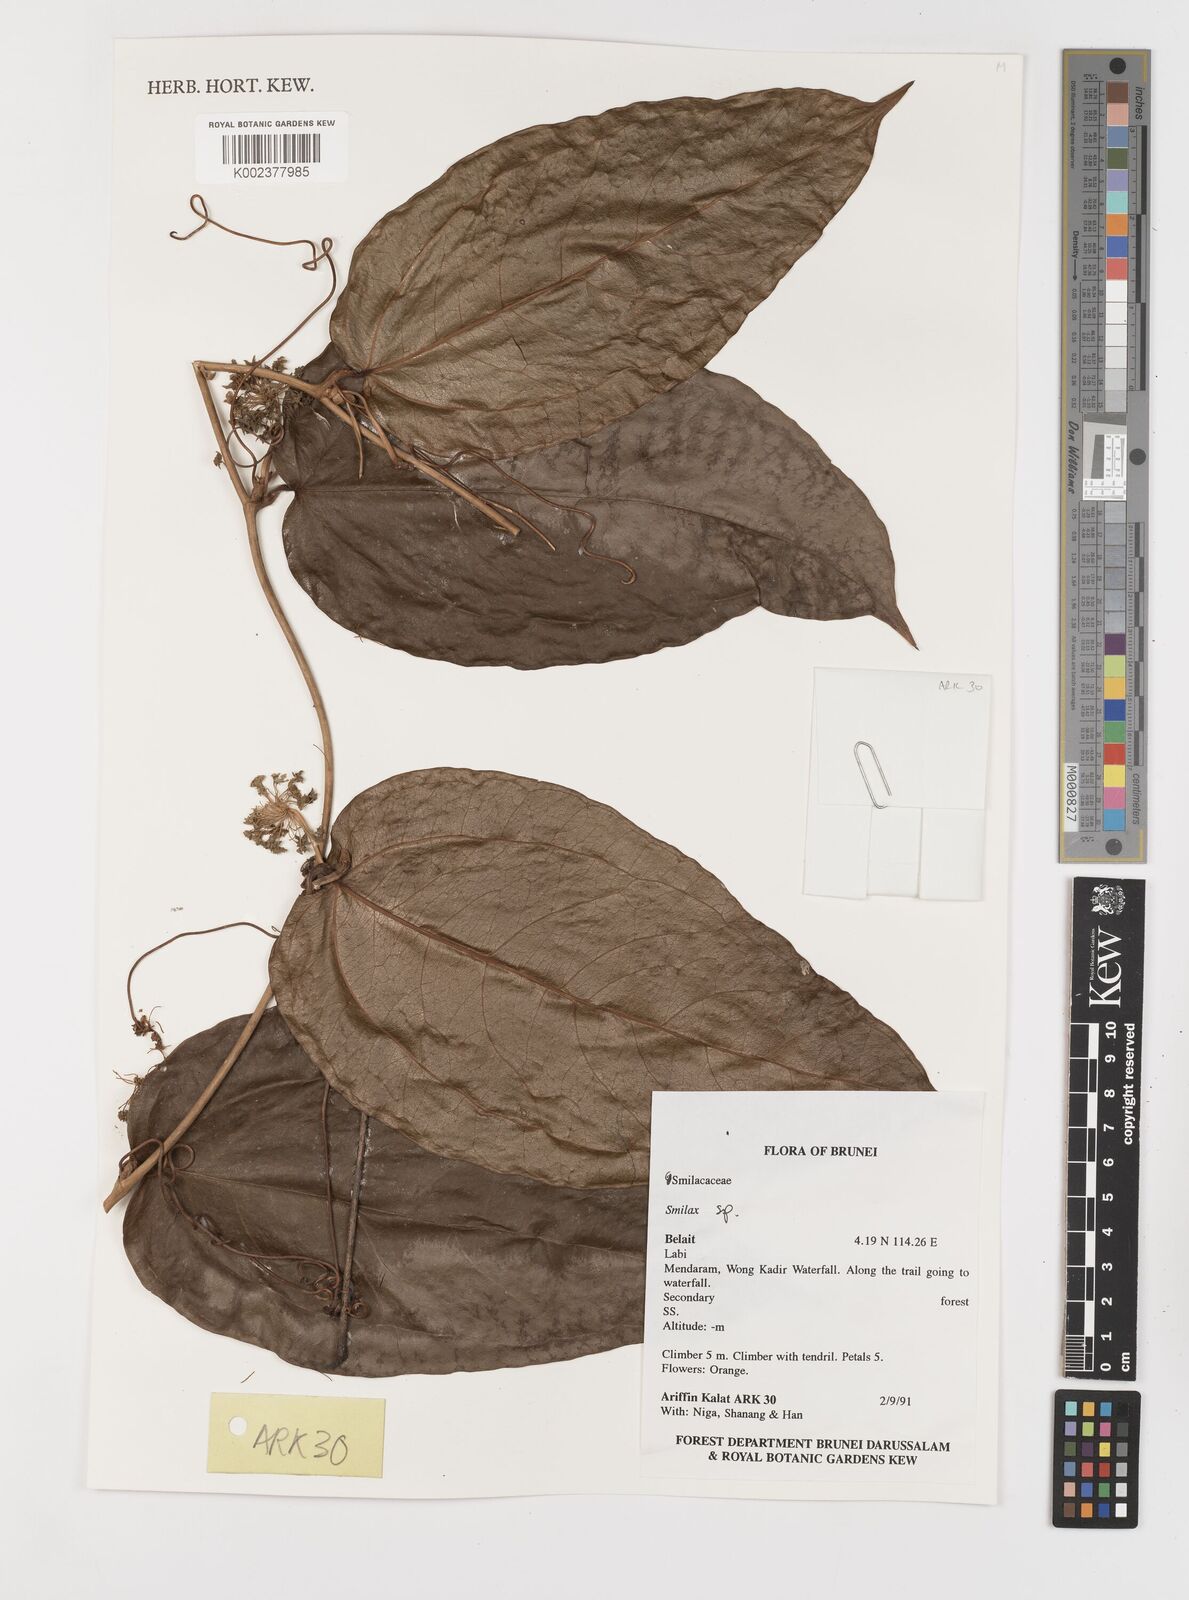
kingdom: Plantae
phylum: Tracheophyta
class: Liliopsida
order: Liliales
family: Smilacaceae
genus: Smilax
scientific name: Smilax
